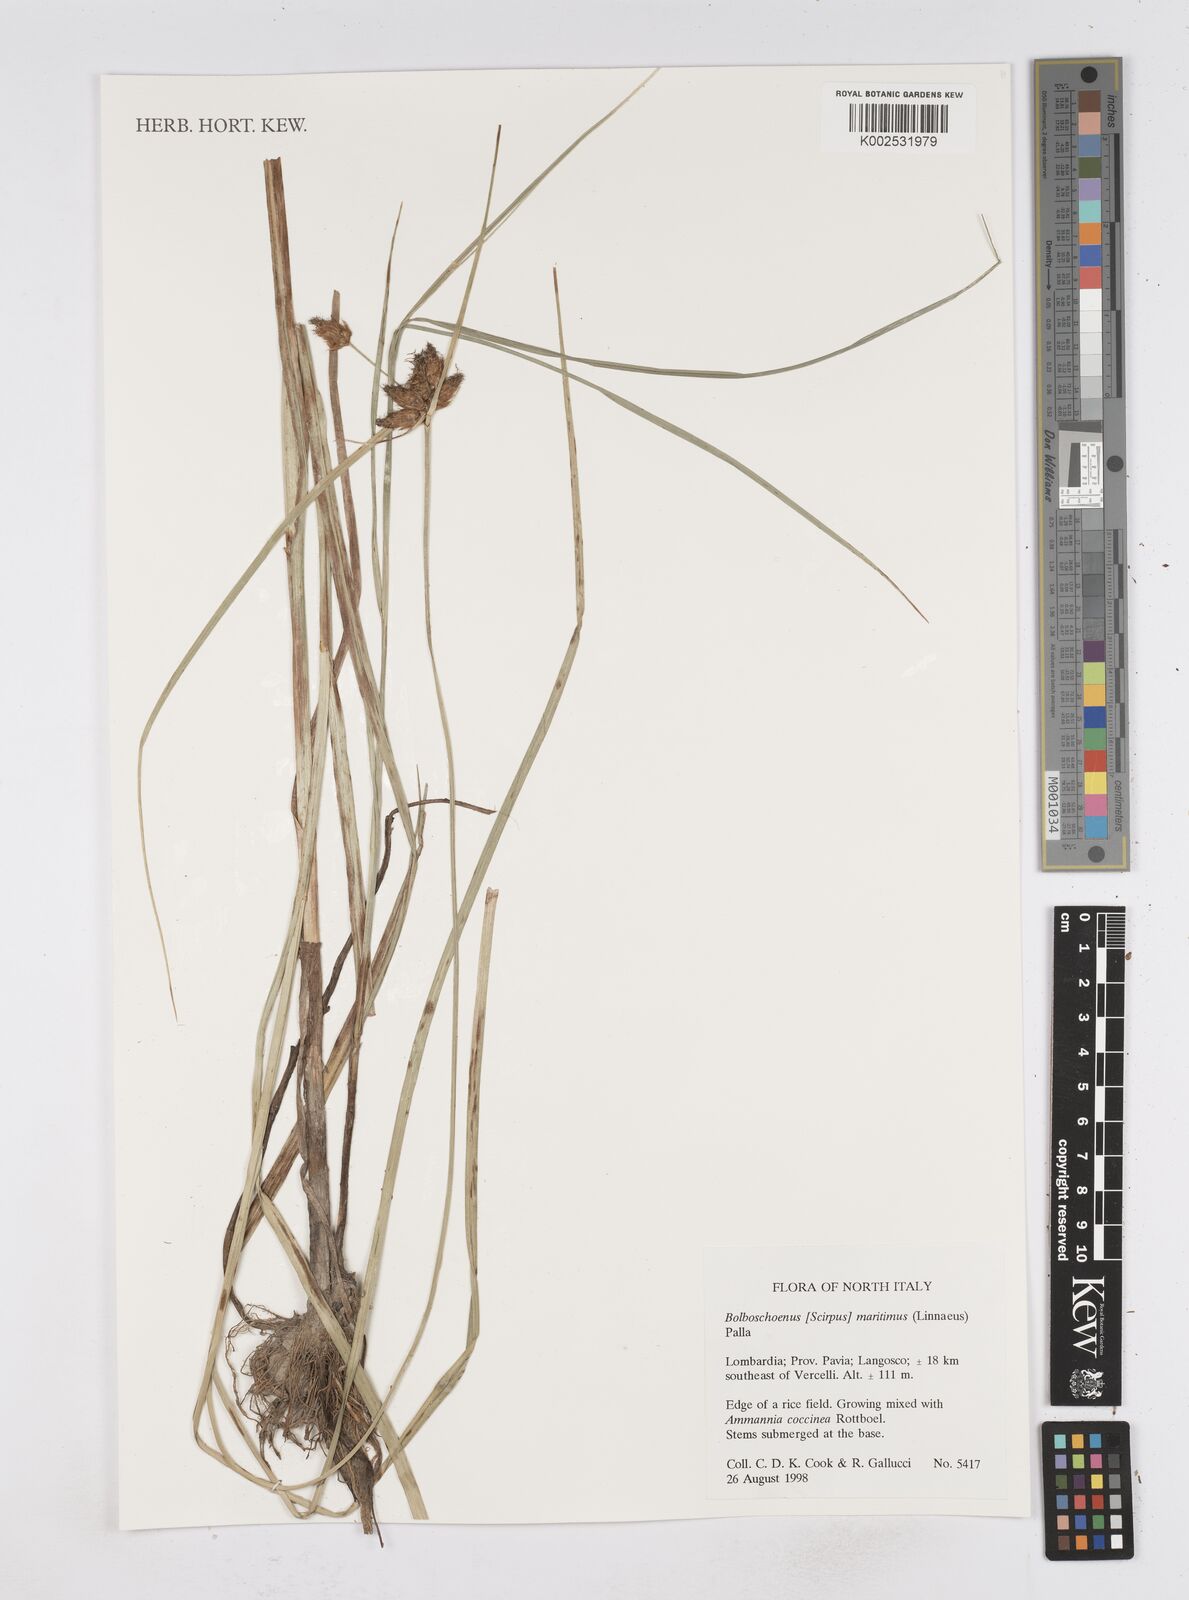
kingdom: Plantae
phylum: Tracheophyta
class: Liliopsida
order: Poales
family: Cyperaceae
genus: Bolboschoenus
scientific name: Bolboschoenus maritimus
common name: Sea club-rush
